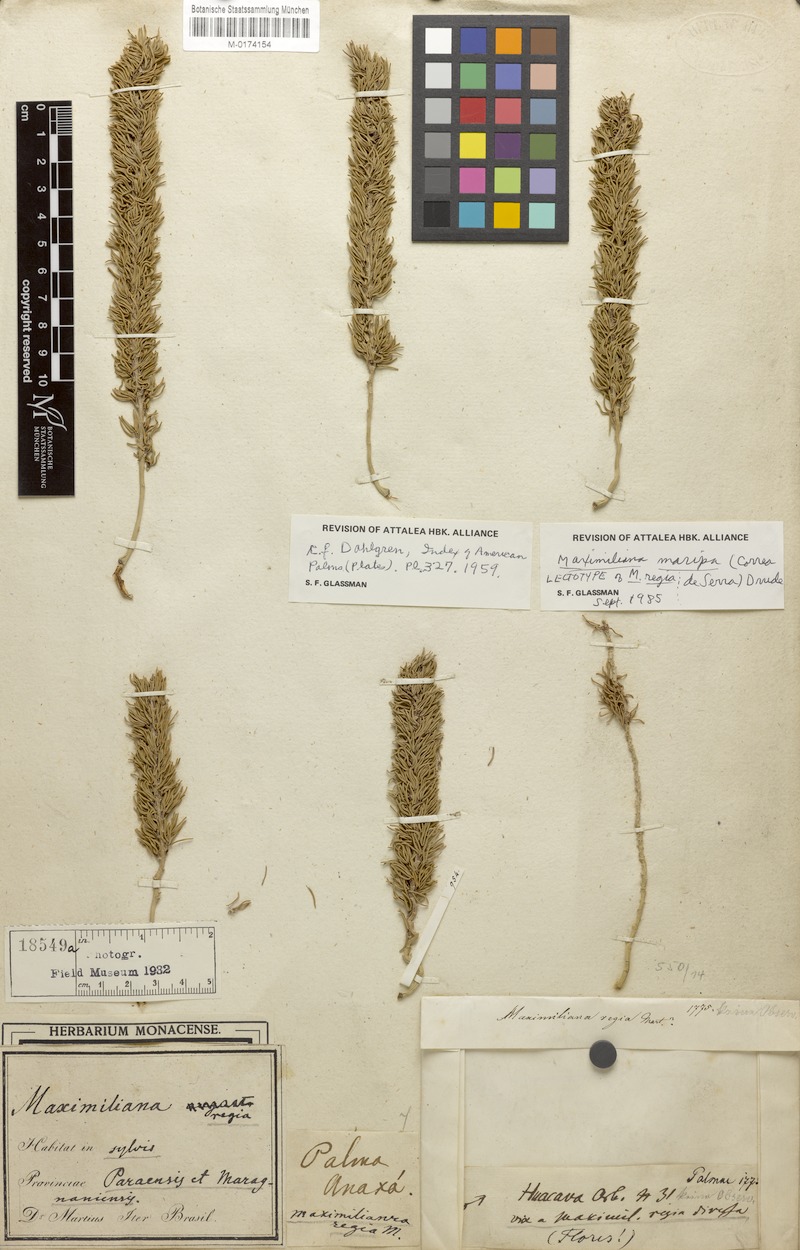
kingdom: Plantae
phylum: Tracheophyta
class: Liliopsida
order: Arecales
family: Arecaceae
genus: Attalea
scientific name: Attalea maripa
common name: Maripa palm
